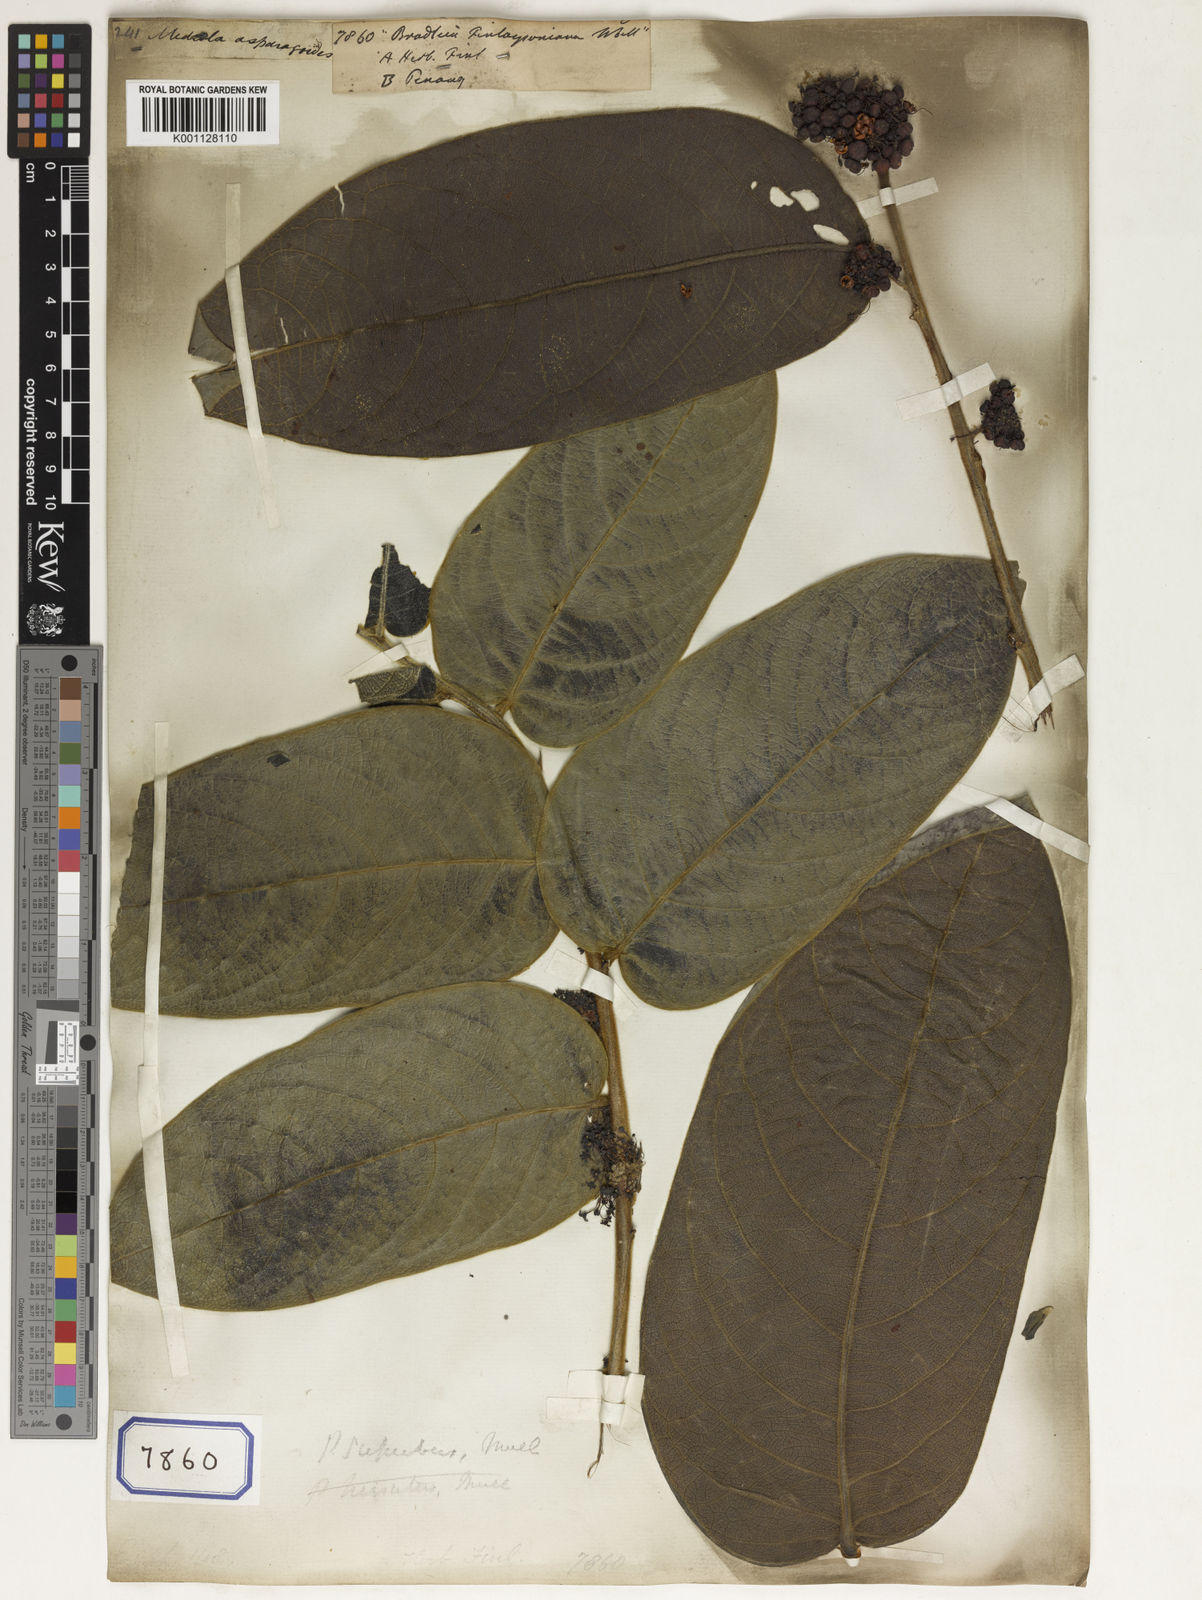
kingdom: Plantae
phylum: Tracheophyta
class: Magnoliopsida
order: Malpighiales
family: Euphorbiaceae
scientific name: Euphorbiaceae
